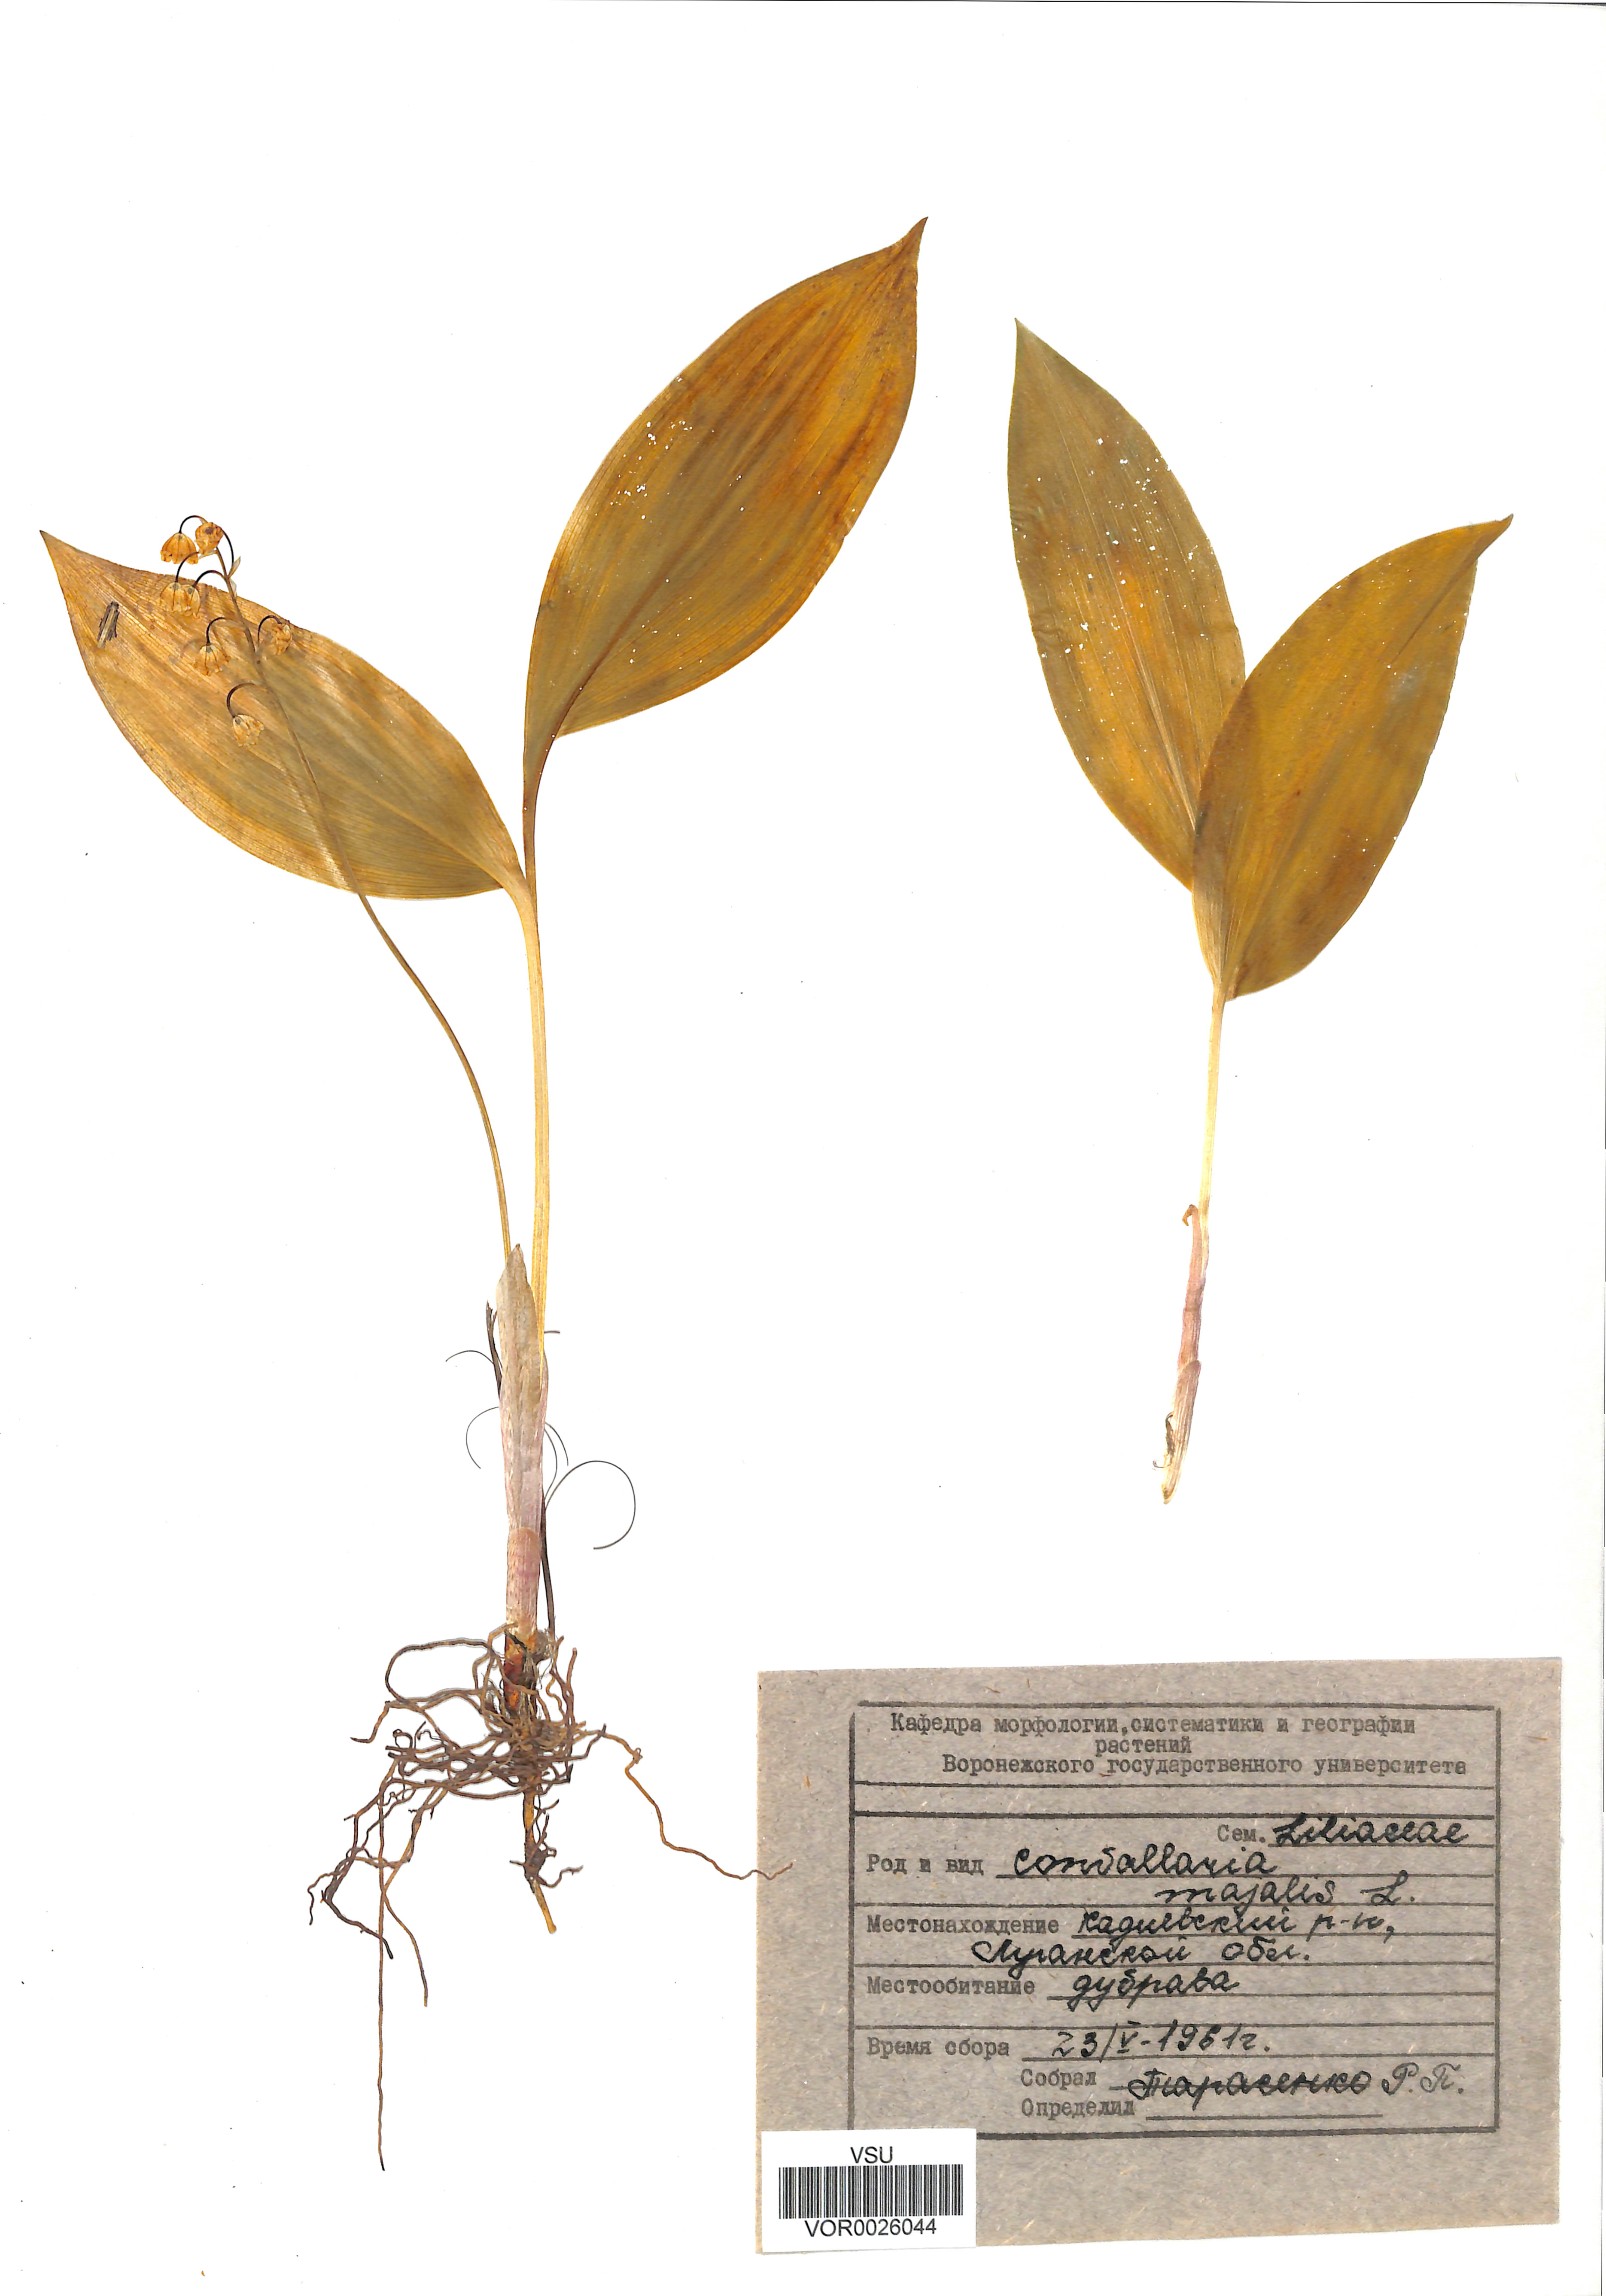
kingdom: Plantae
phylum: Tracheophyta
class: Liliopsida
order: Asparagales
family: Asparagaceae
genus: Convallaria
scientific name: Convallaria majalis
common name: Lily-of-the-valley
